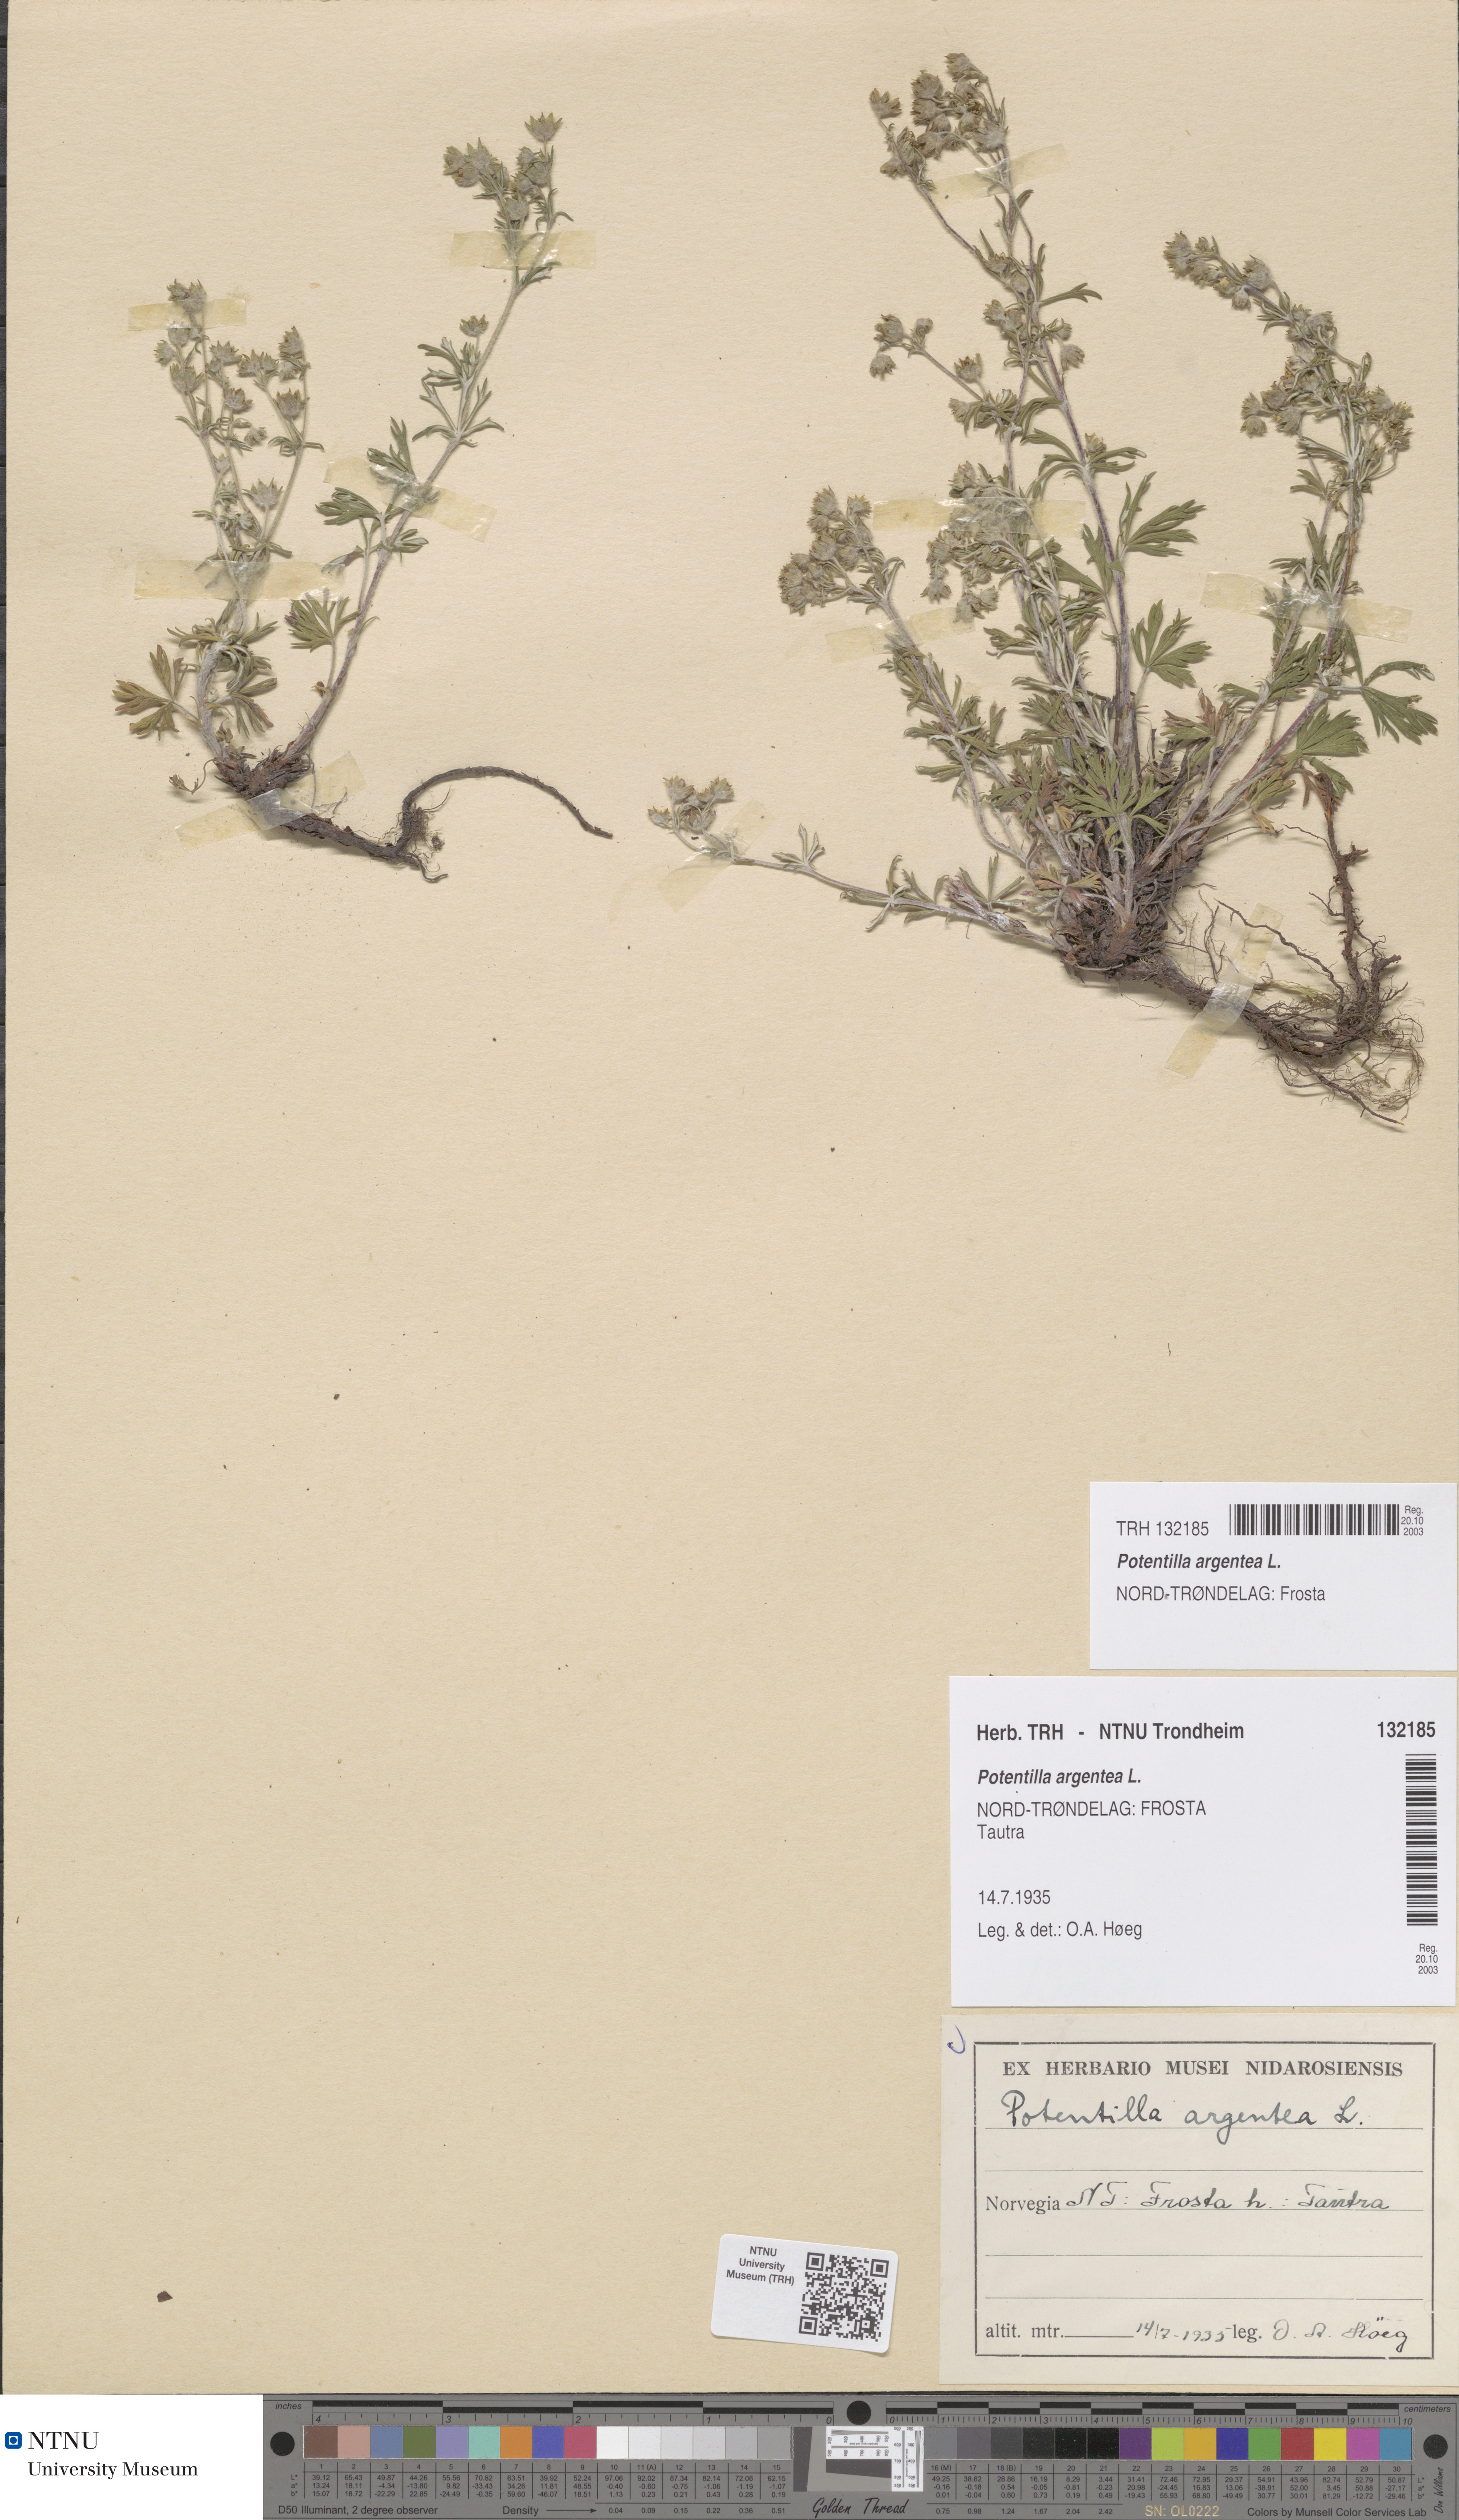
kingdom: Plantae
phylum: Tracheophyta
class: Magnoliopsida
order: Rosales
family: Rosaceae
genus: Potentilla
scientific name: Potentilla argentea
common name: Hoary cinquefoil
